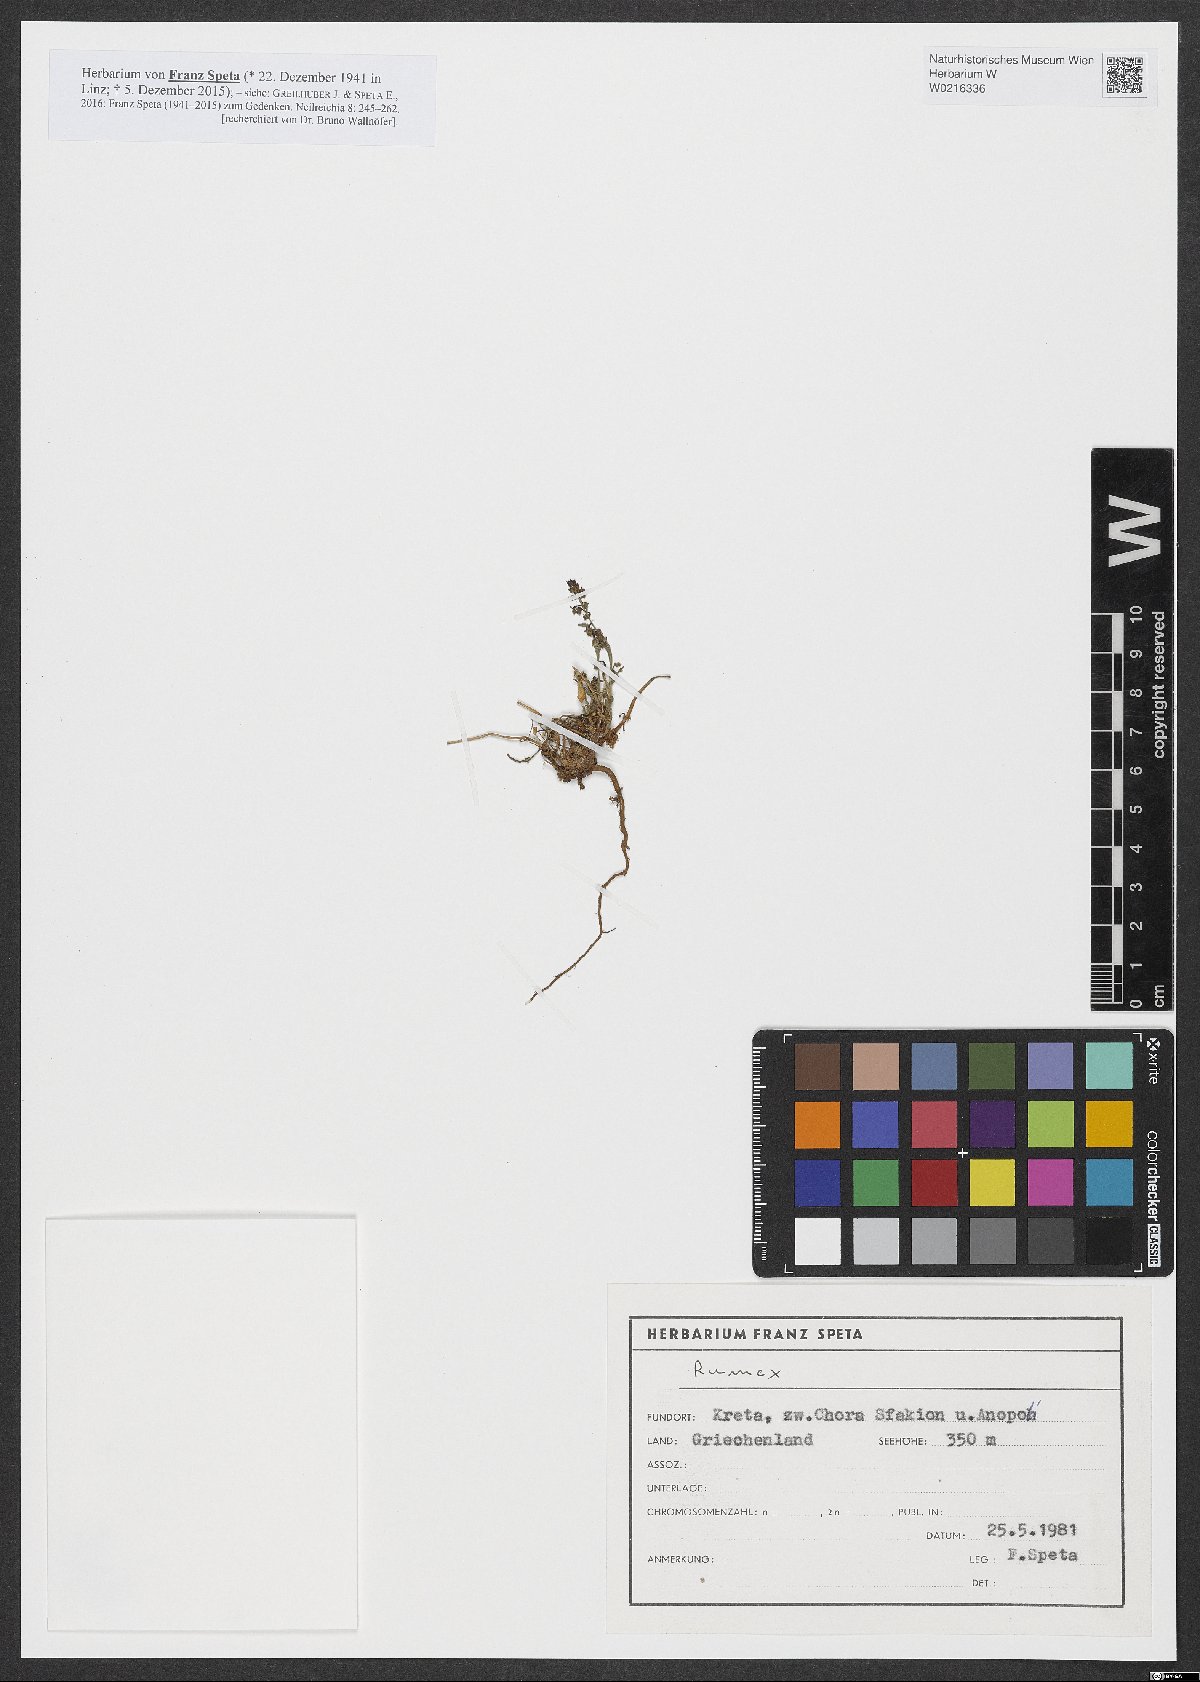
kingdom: Plantae
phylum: Tracheophyta
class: Magnoliopsida
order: Caryophyllales
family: Polygonaceae
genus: Rumex
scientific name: Rumex
